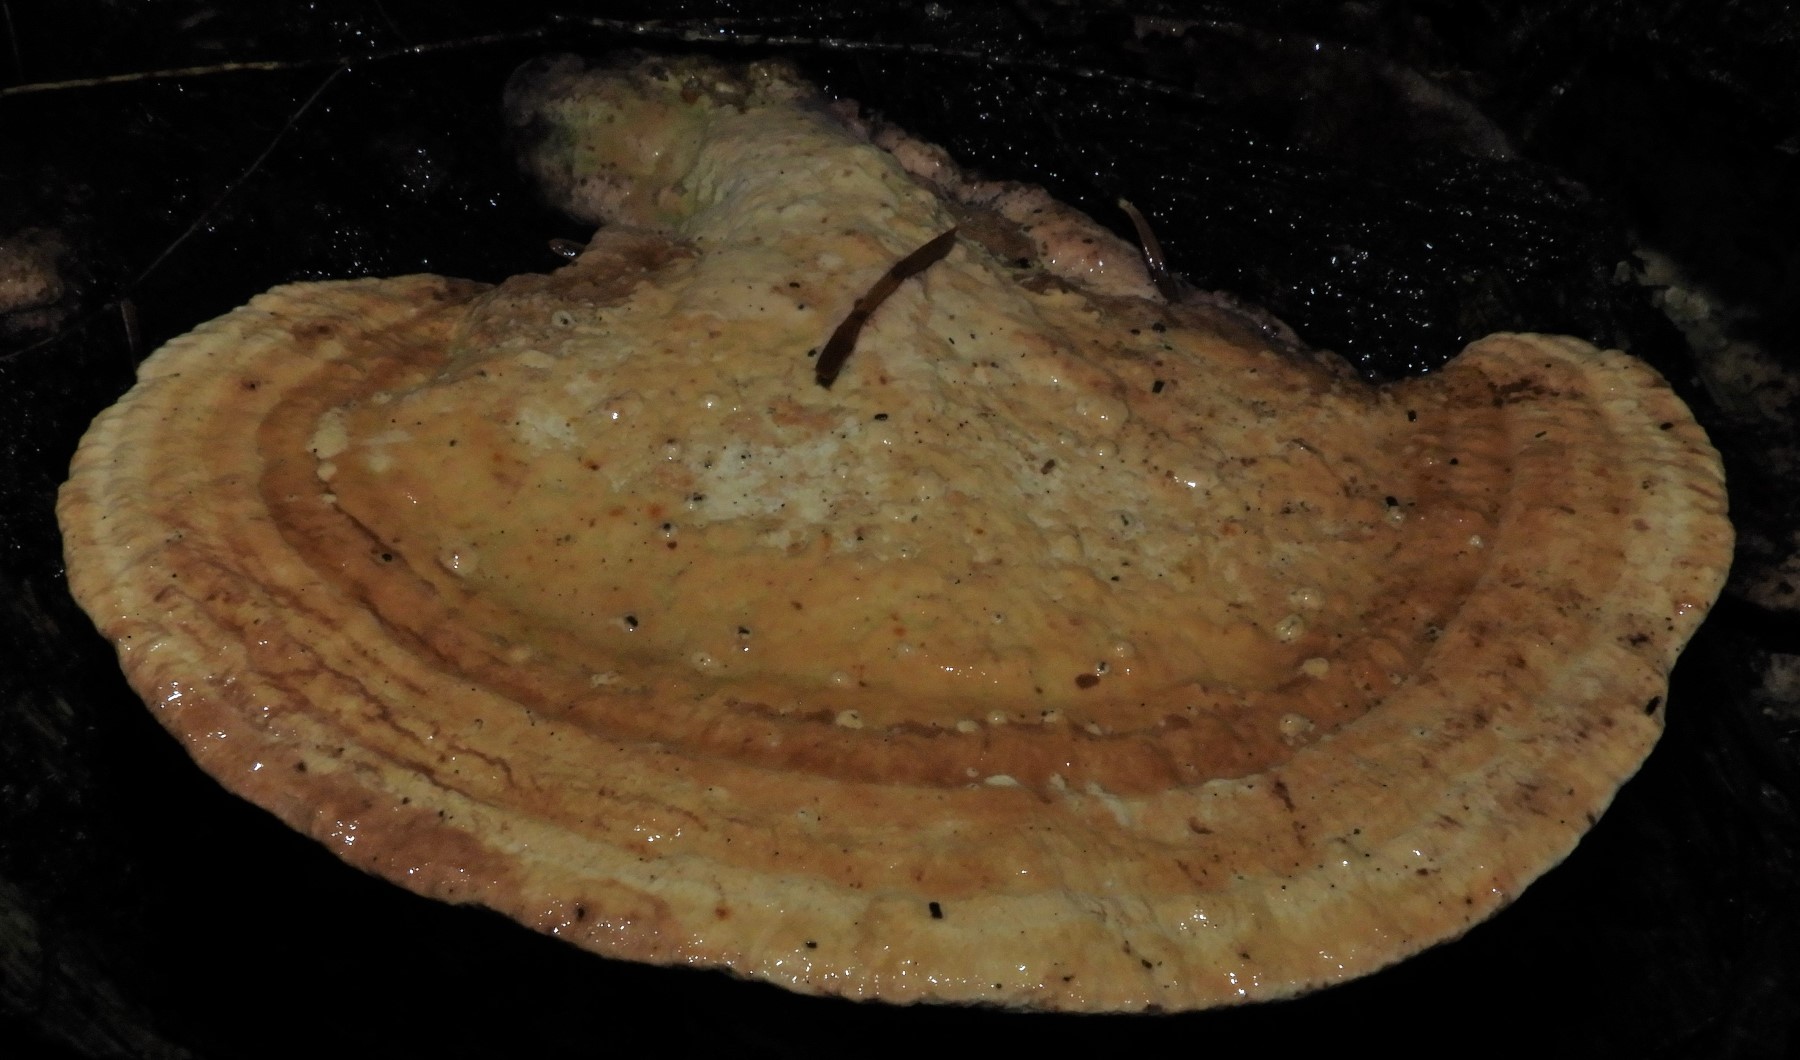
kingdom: Fungi
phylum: Basidiomycota
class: Agaricomycetes
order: Polyporales
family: Fomitopsidaceae
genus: Daedalea
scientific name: Daedalea quercina
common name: ege-labyrintsvamp
